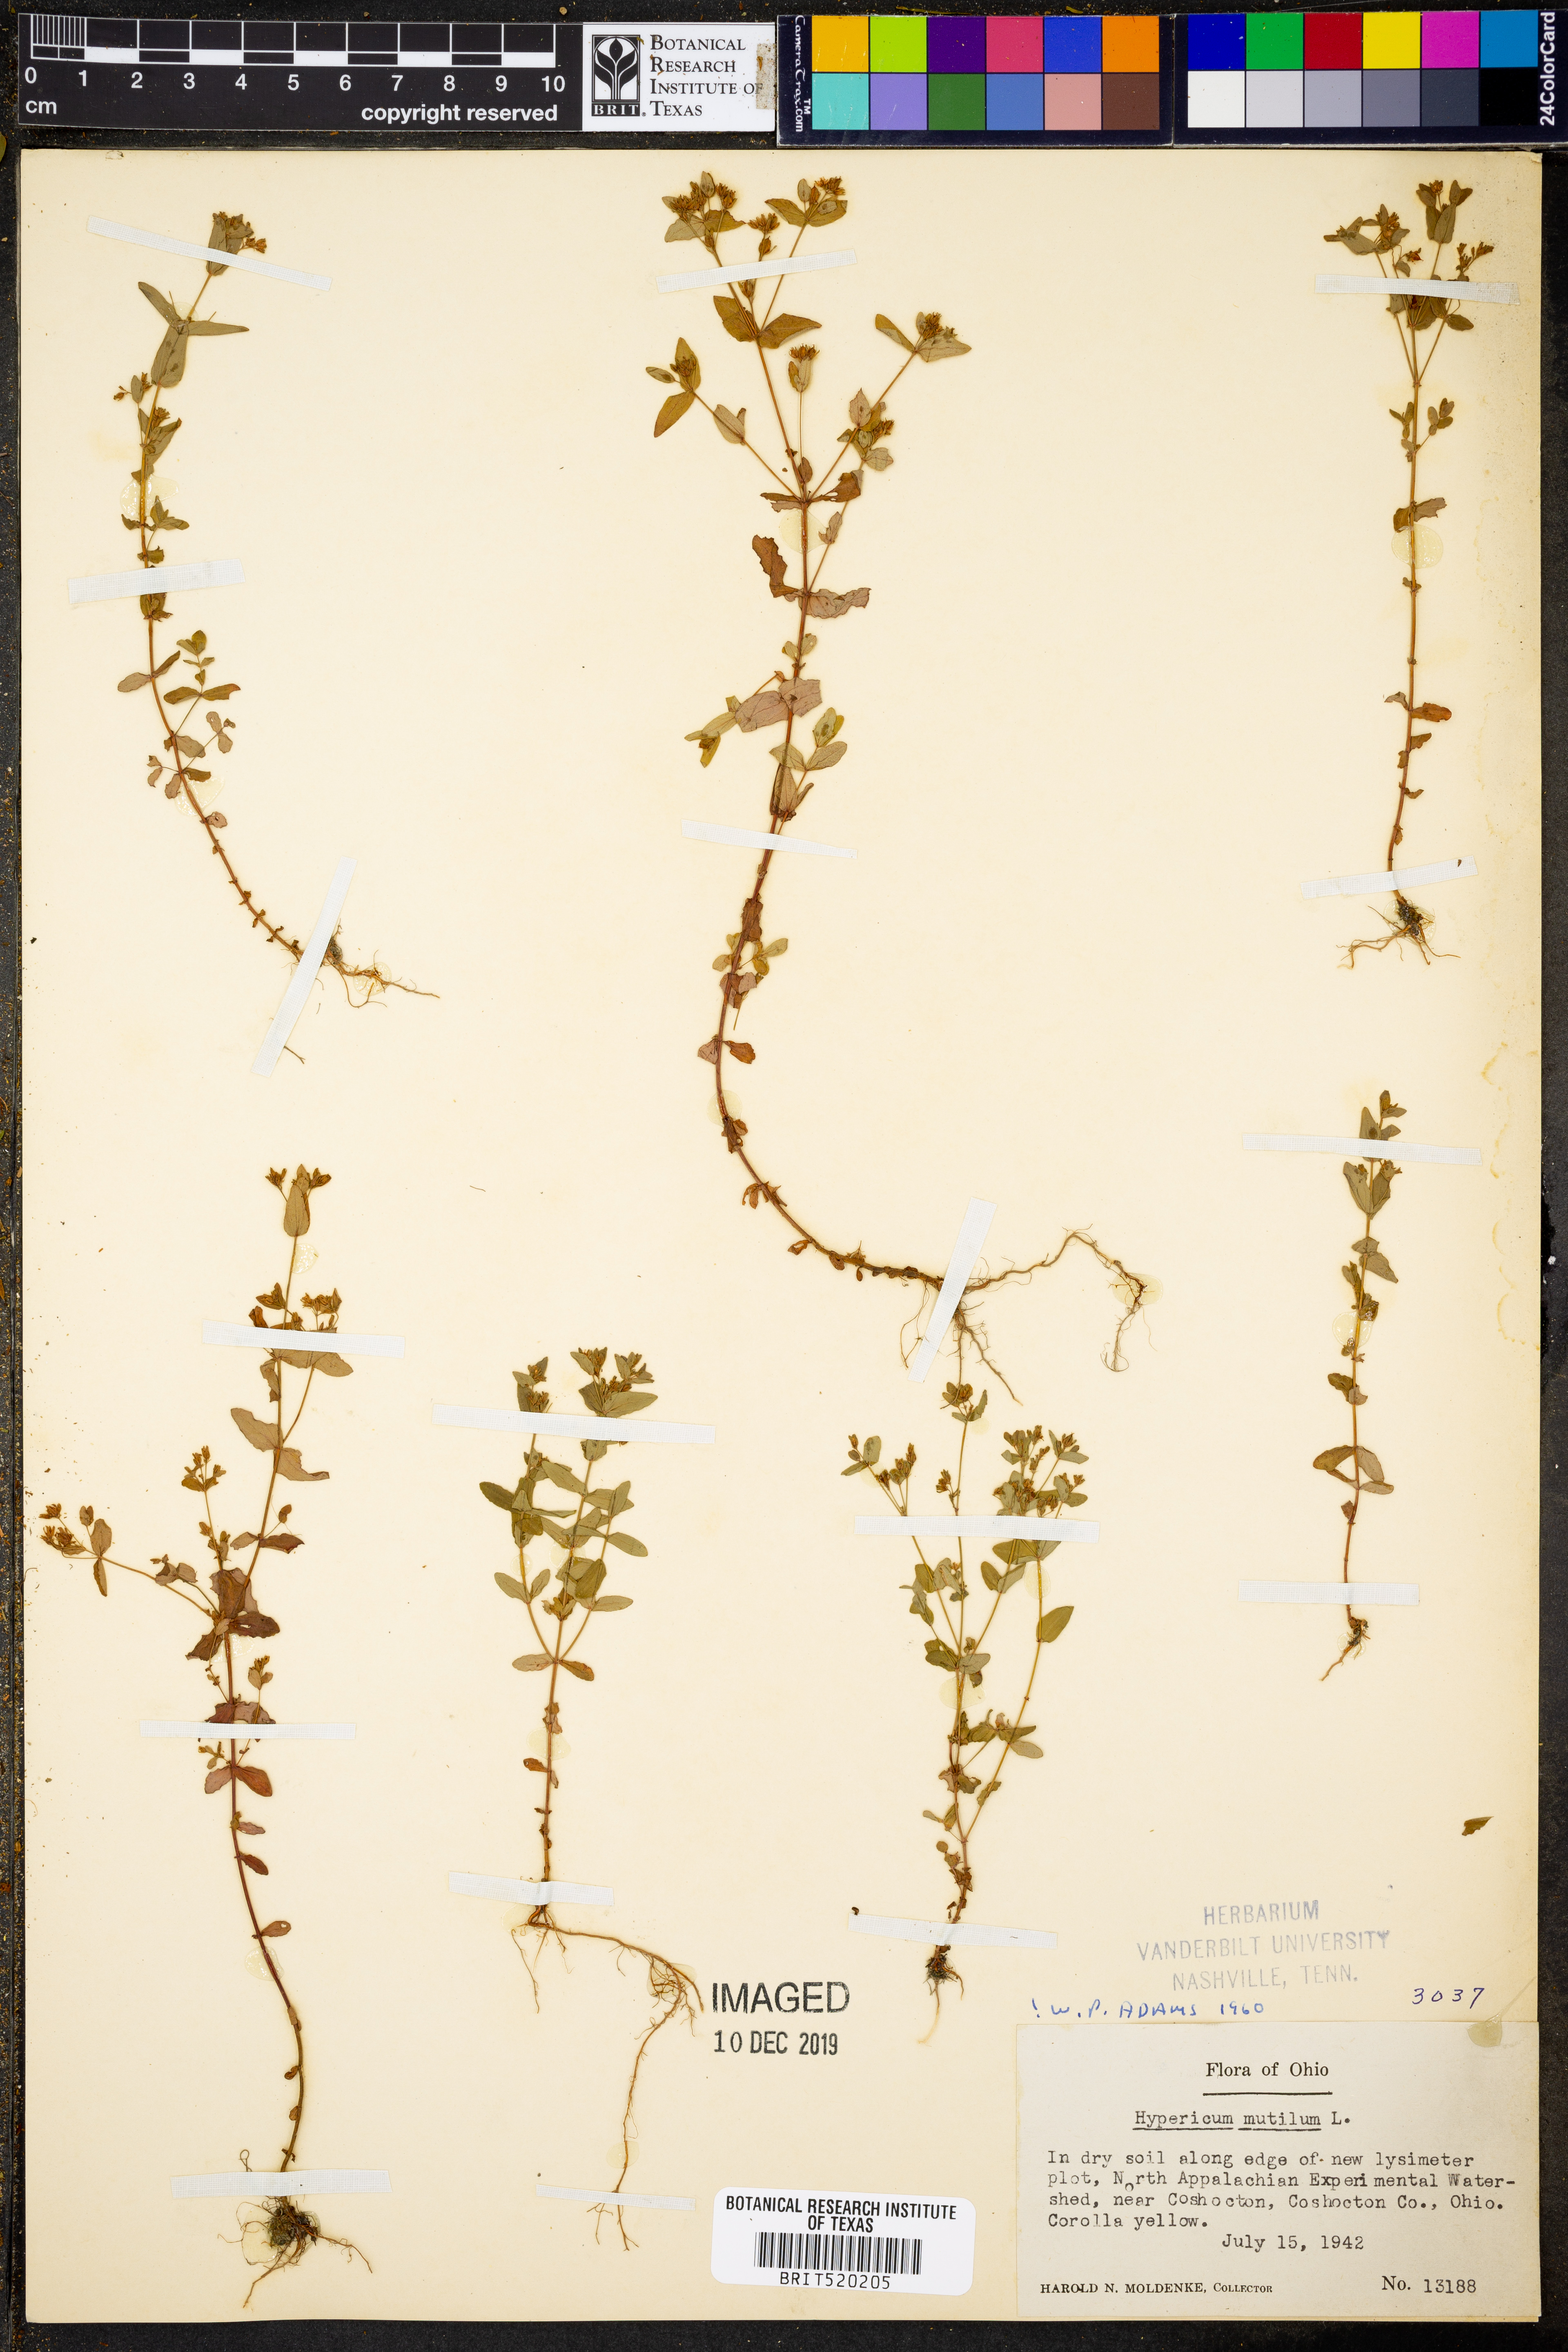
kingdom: Plantae
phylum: Tracheophyta
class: Magnoliopsida
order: Malpighiales
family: Hypericaceae
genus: Hypericum
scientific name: Hypericum mutilum
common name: Dwarf st. john's-wort
